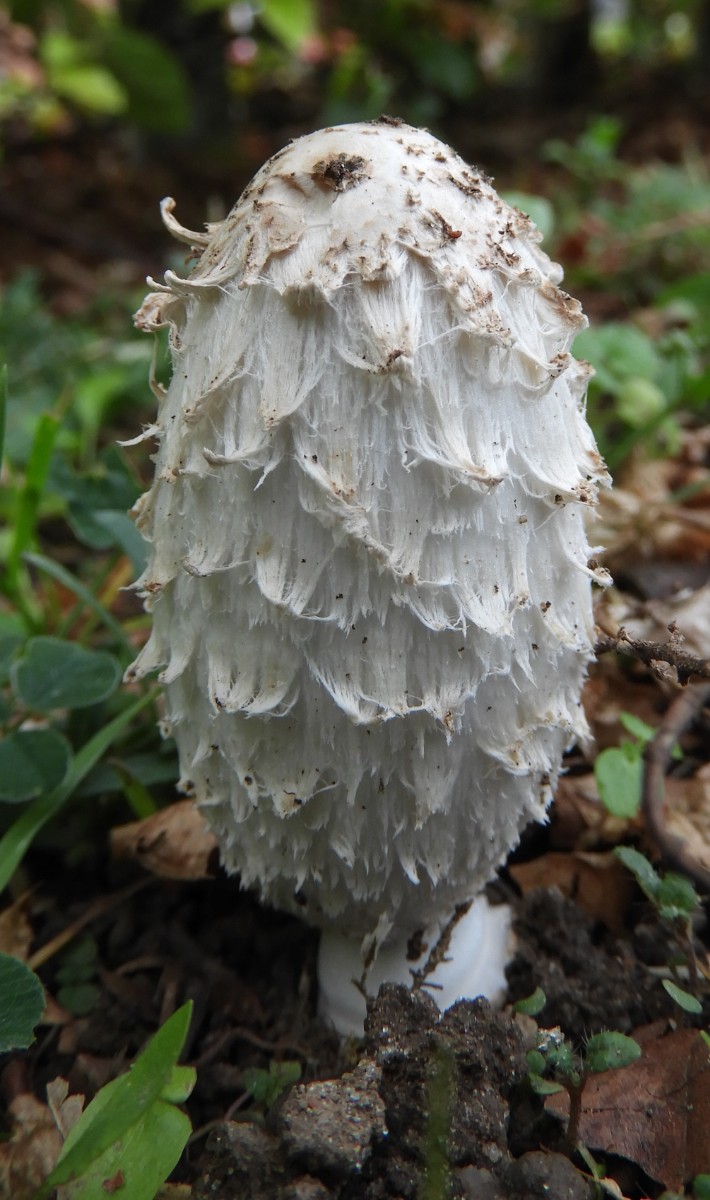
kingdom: Fungi
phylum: Basidiomycota
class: Agaricomycetes
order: Agaricales
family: Agaricaceae
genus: Coprinus
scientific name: Coprinus comatus
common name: stor parykhat
